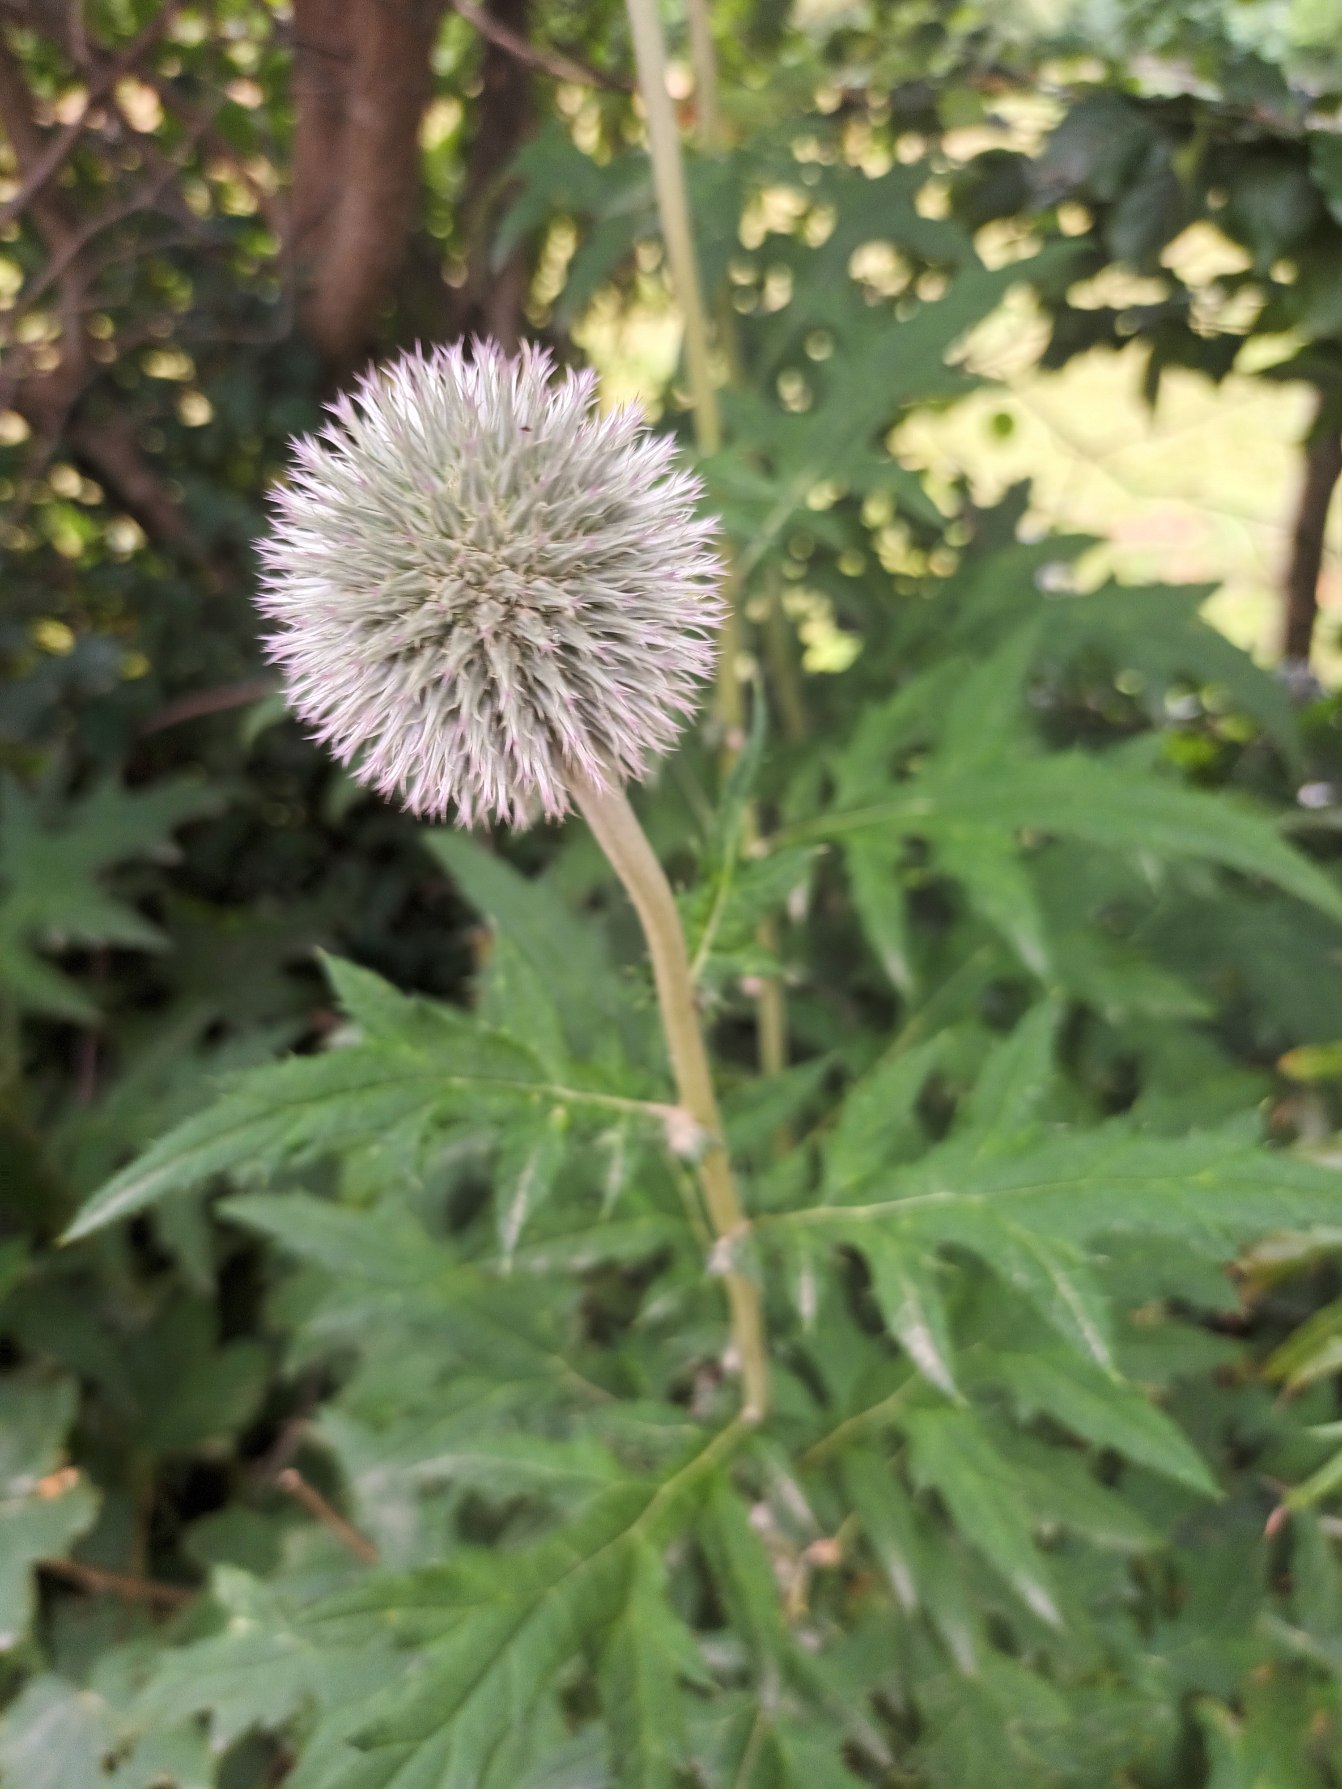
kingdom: Plantae
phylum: Tracheophyta
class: Magnoliopsida
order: Asterales
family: Asteraceae
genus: Echinops
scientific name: Echinops exaltatus
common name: Høj tidselkugle
